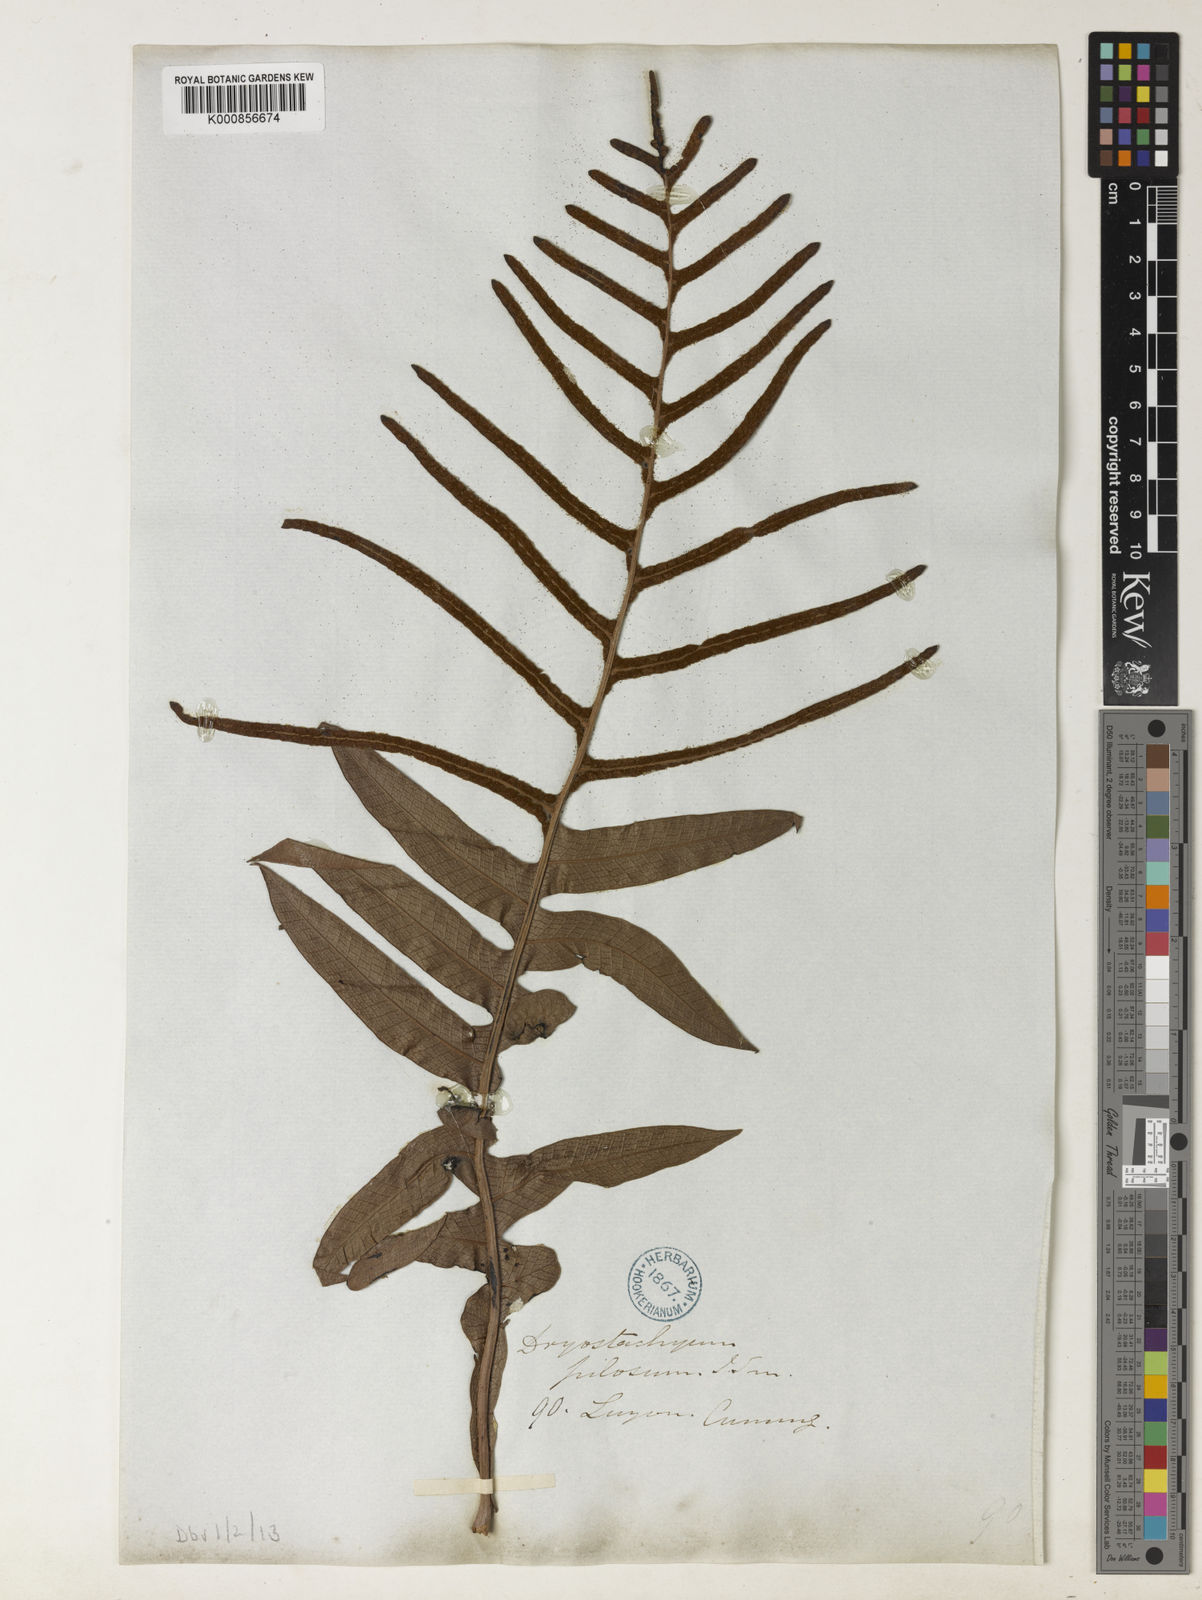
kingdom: Plantae
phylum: Tracheophyta
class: Polypodiopsida
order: Polypodiales
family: Polypodiaceae
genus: Drynaria
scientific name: Drynaria pilosa
